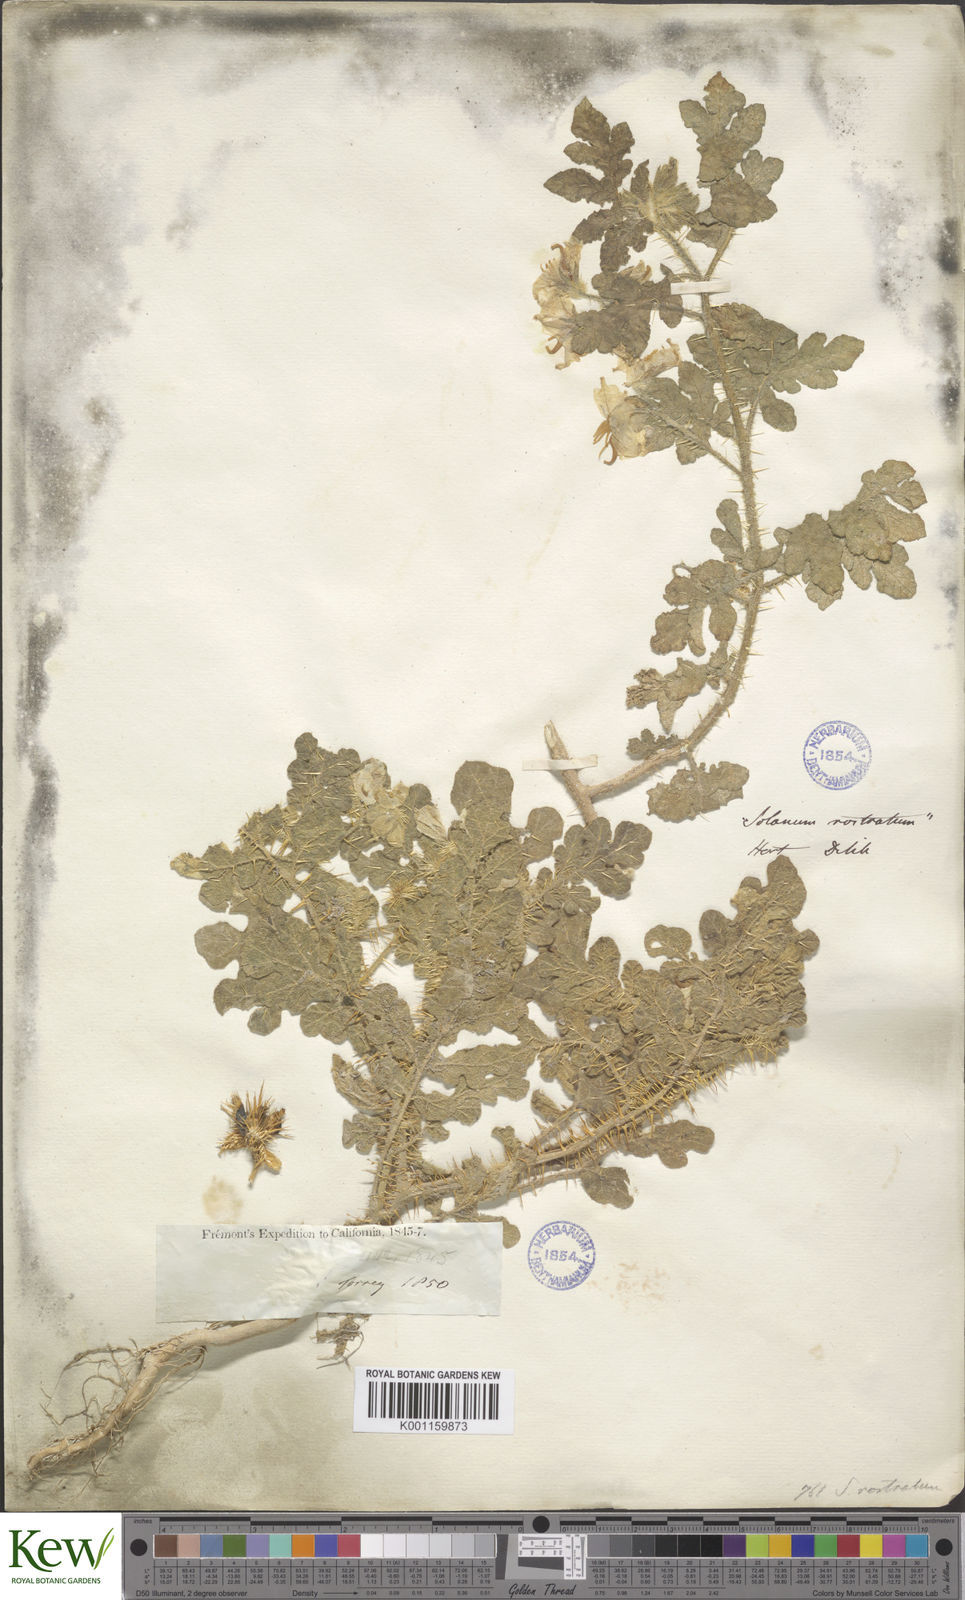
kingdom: Plantae
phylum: Tracheophyta
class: Magnoliopsida
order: Solanales
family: Solanaceae
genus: Solanum
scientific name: Solanum angustifolium
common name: Buffalobur nightshade
